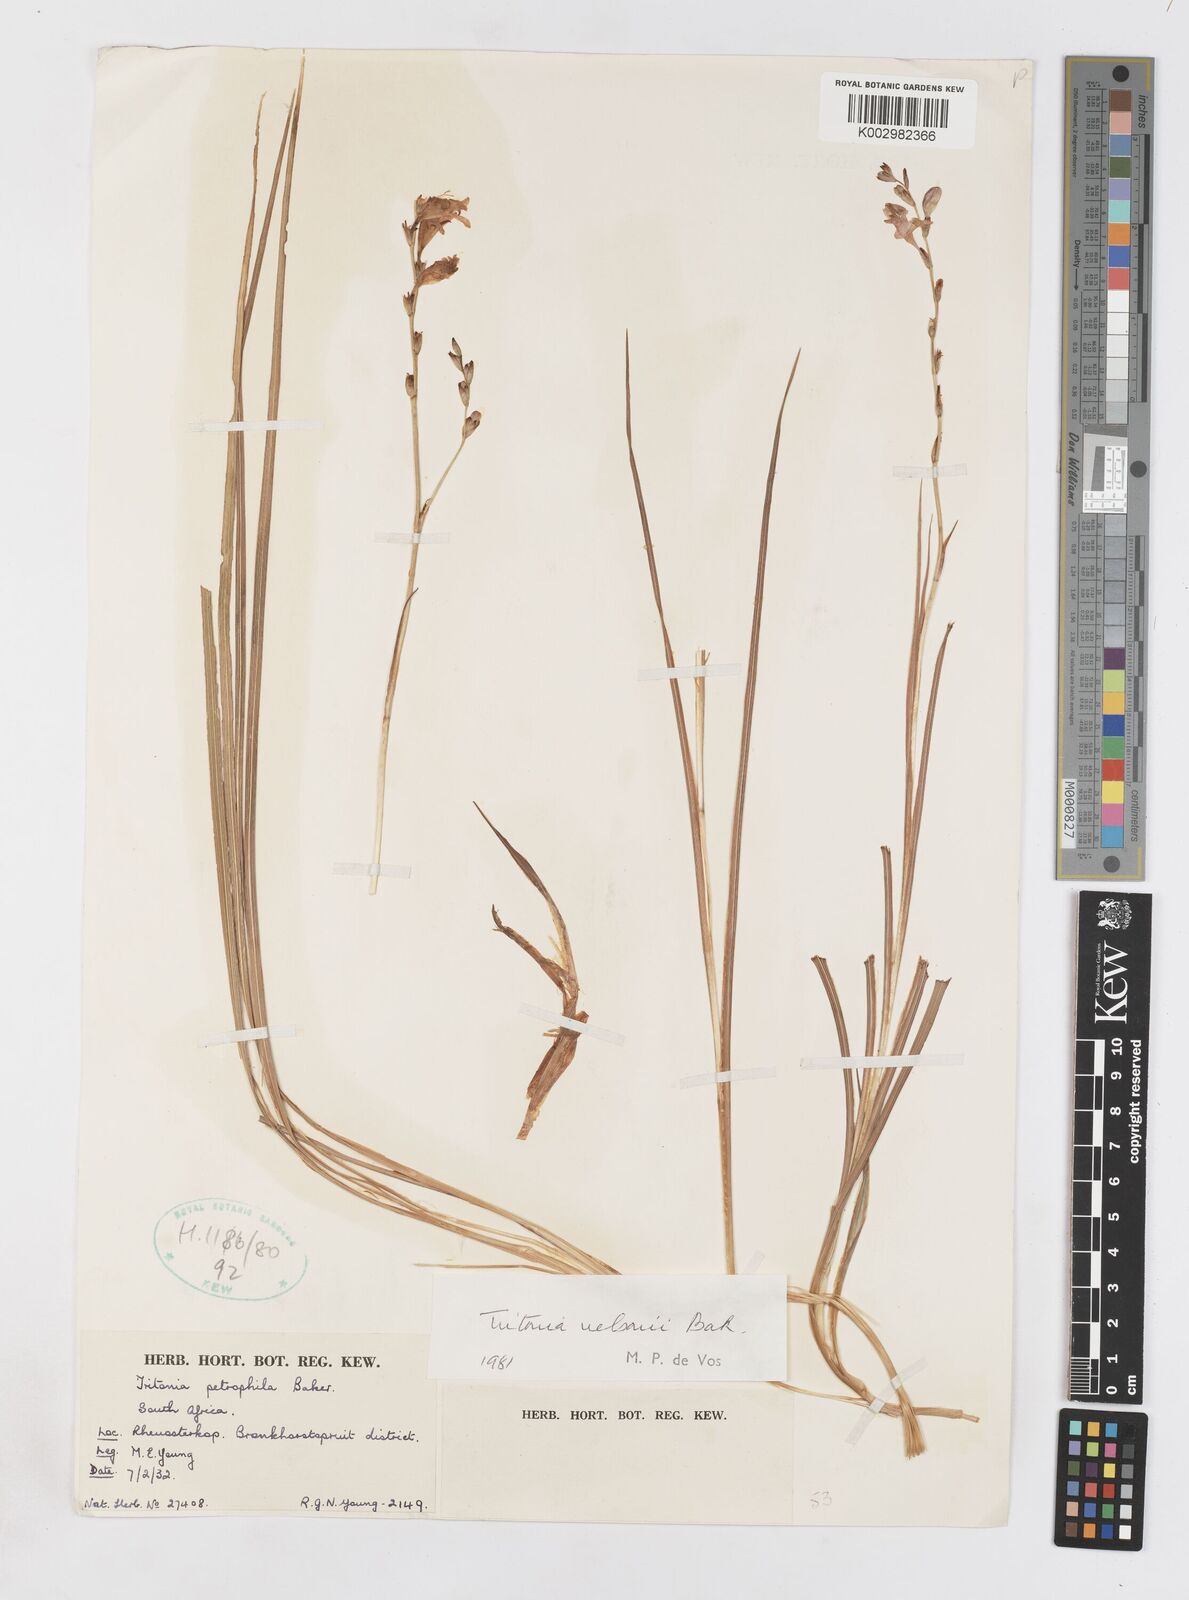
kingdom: Plantae
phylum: Tracheophyta
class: Liliopsida
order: Asparagales
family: Iridaceae
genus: Tritonia
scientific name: Tritonia nelsonii
